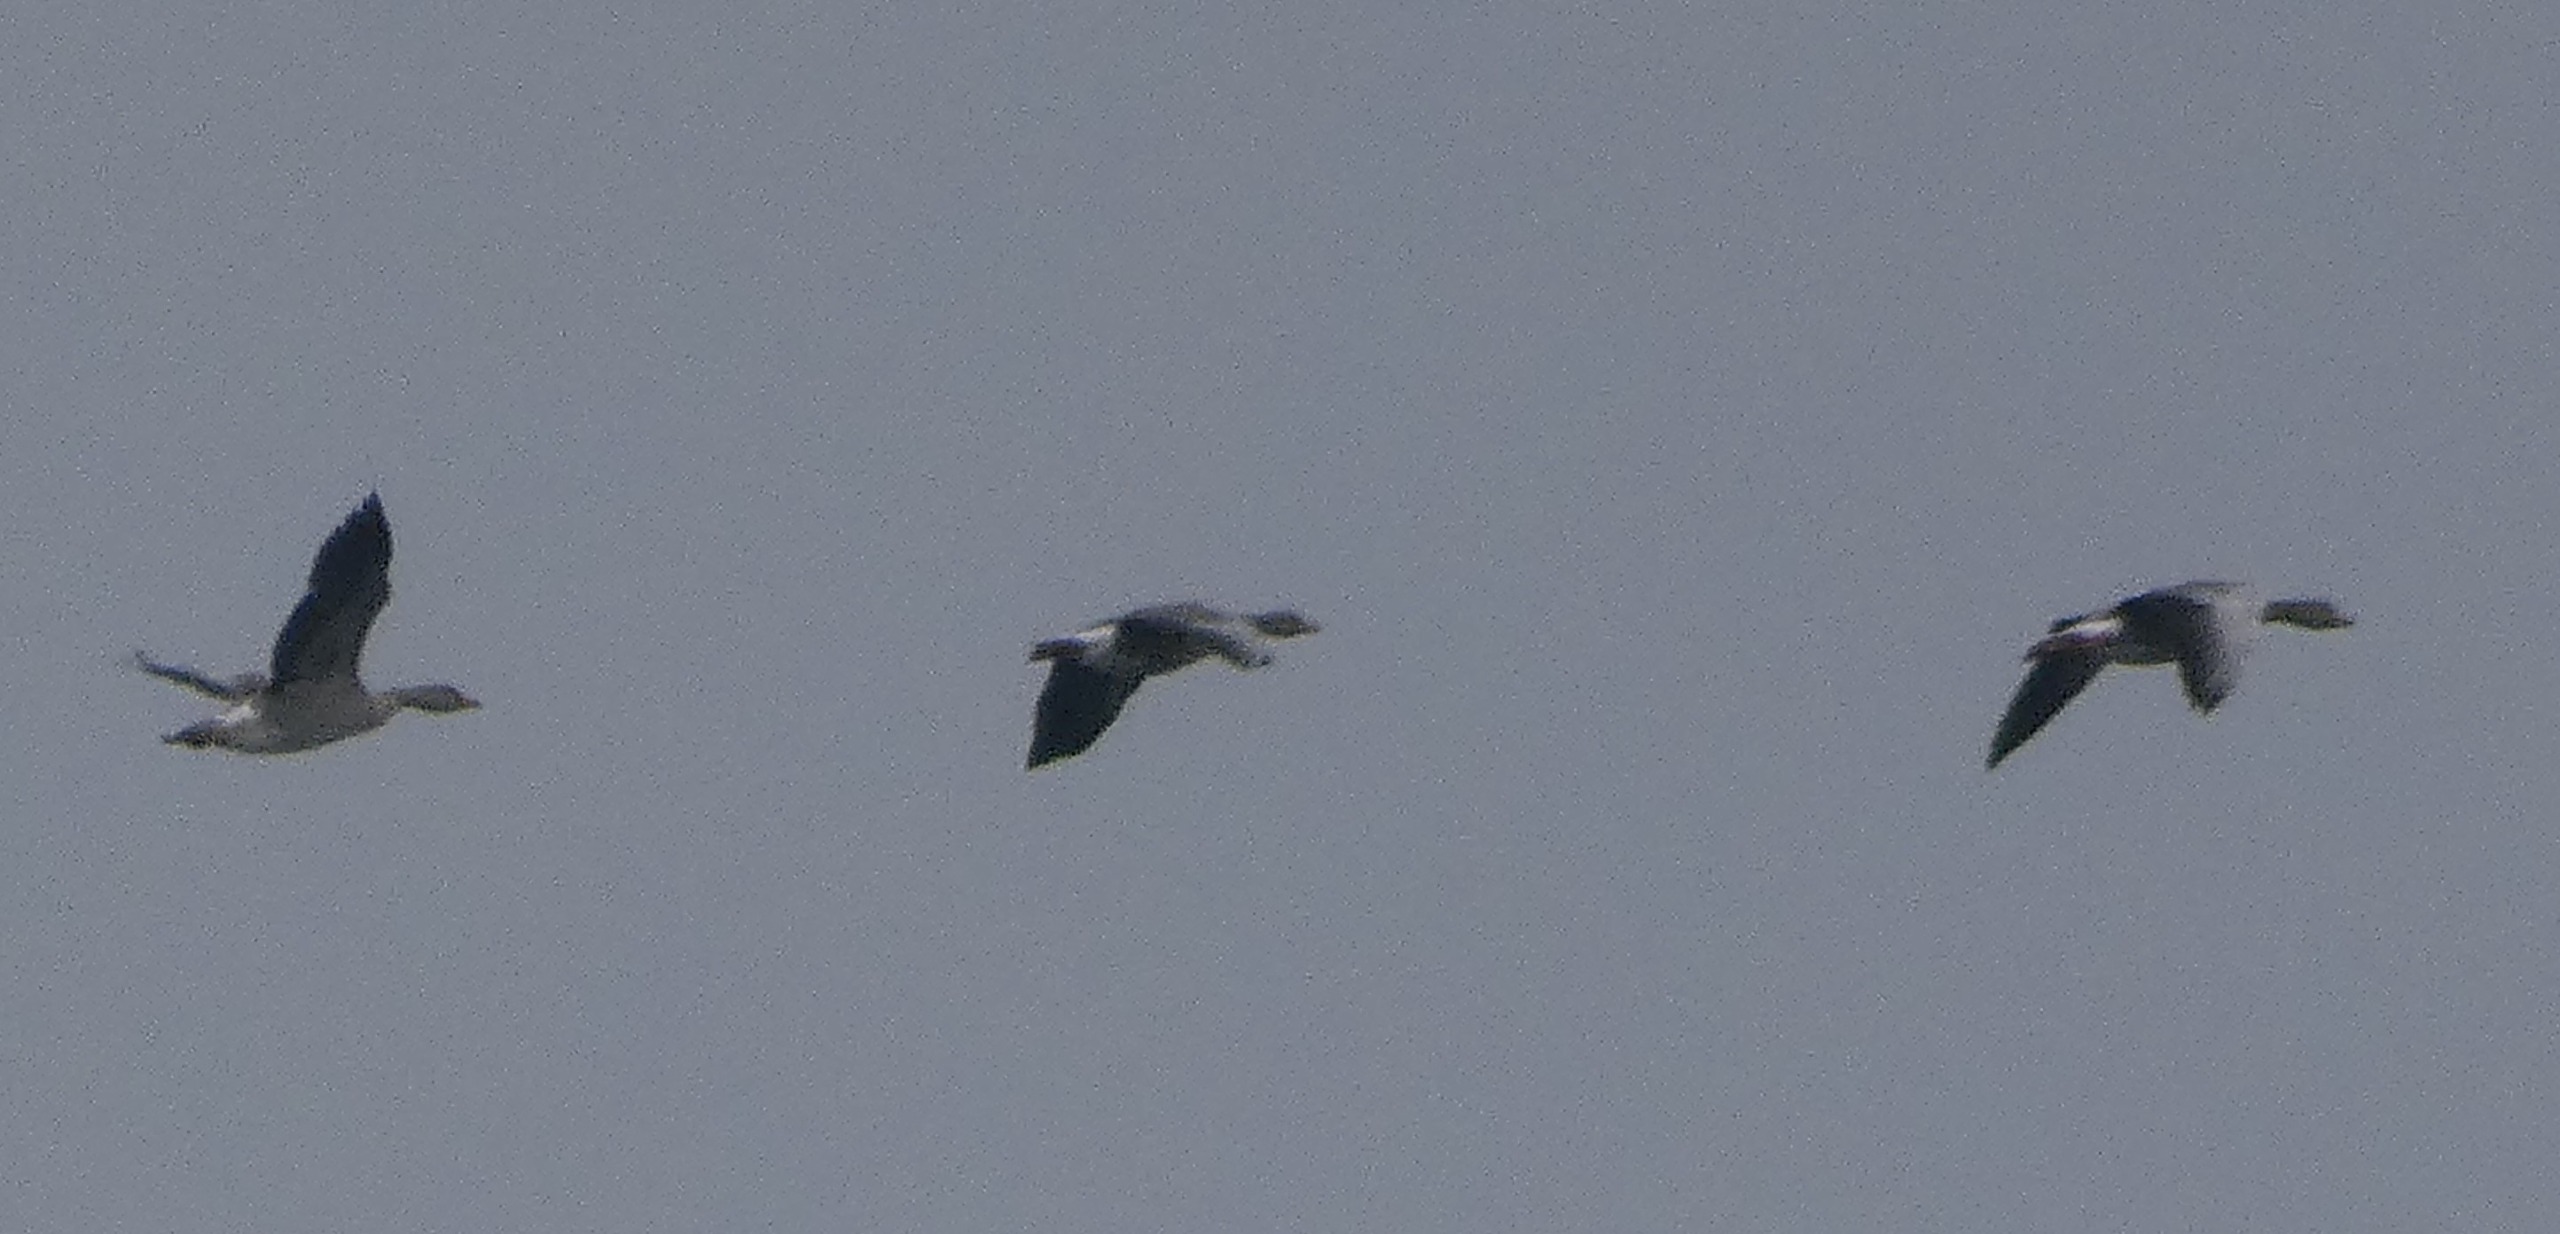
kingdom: Animalia
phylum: Chordata
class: Aves
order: Anseriformes
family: Anatidae
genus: Anser
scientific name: Anser anser
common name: Grågås
